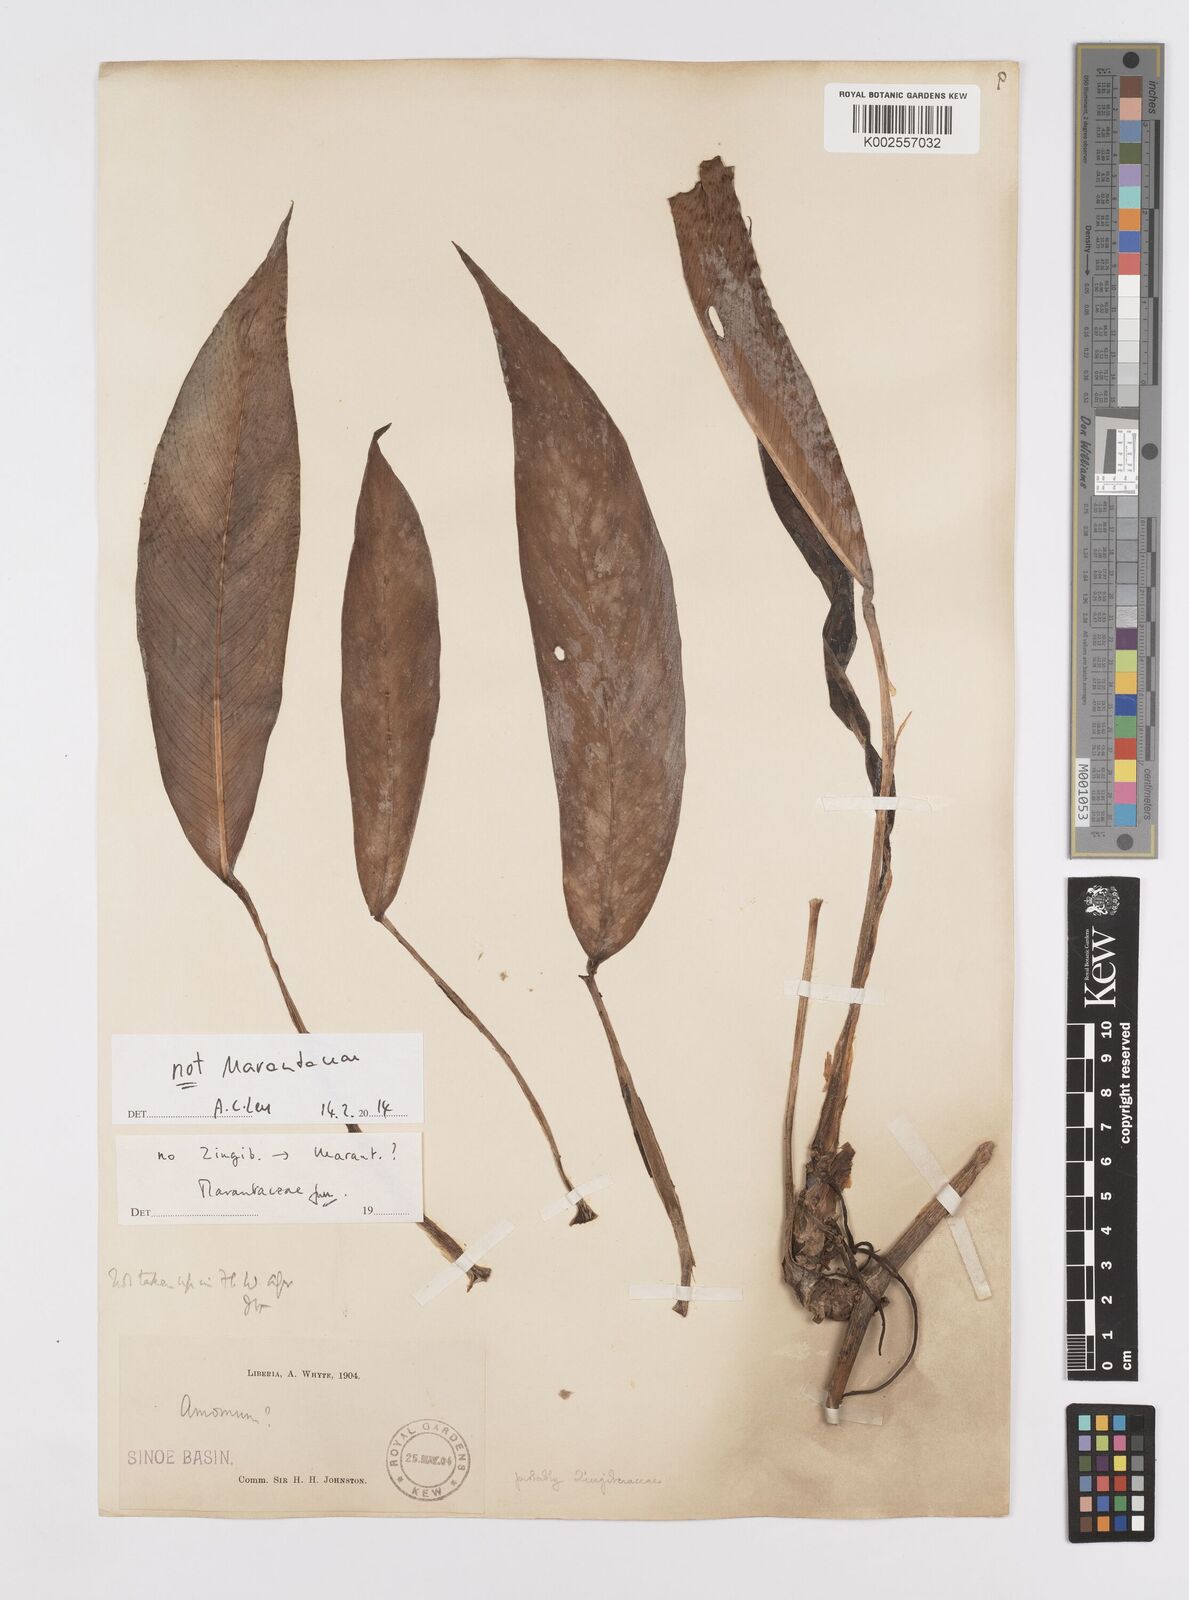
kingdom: Plantae
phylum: Tracheophyta
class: Liliopsida
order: Alismatales
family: Araceae
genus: Culcasia
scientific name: Culcasia
